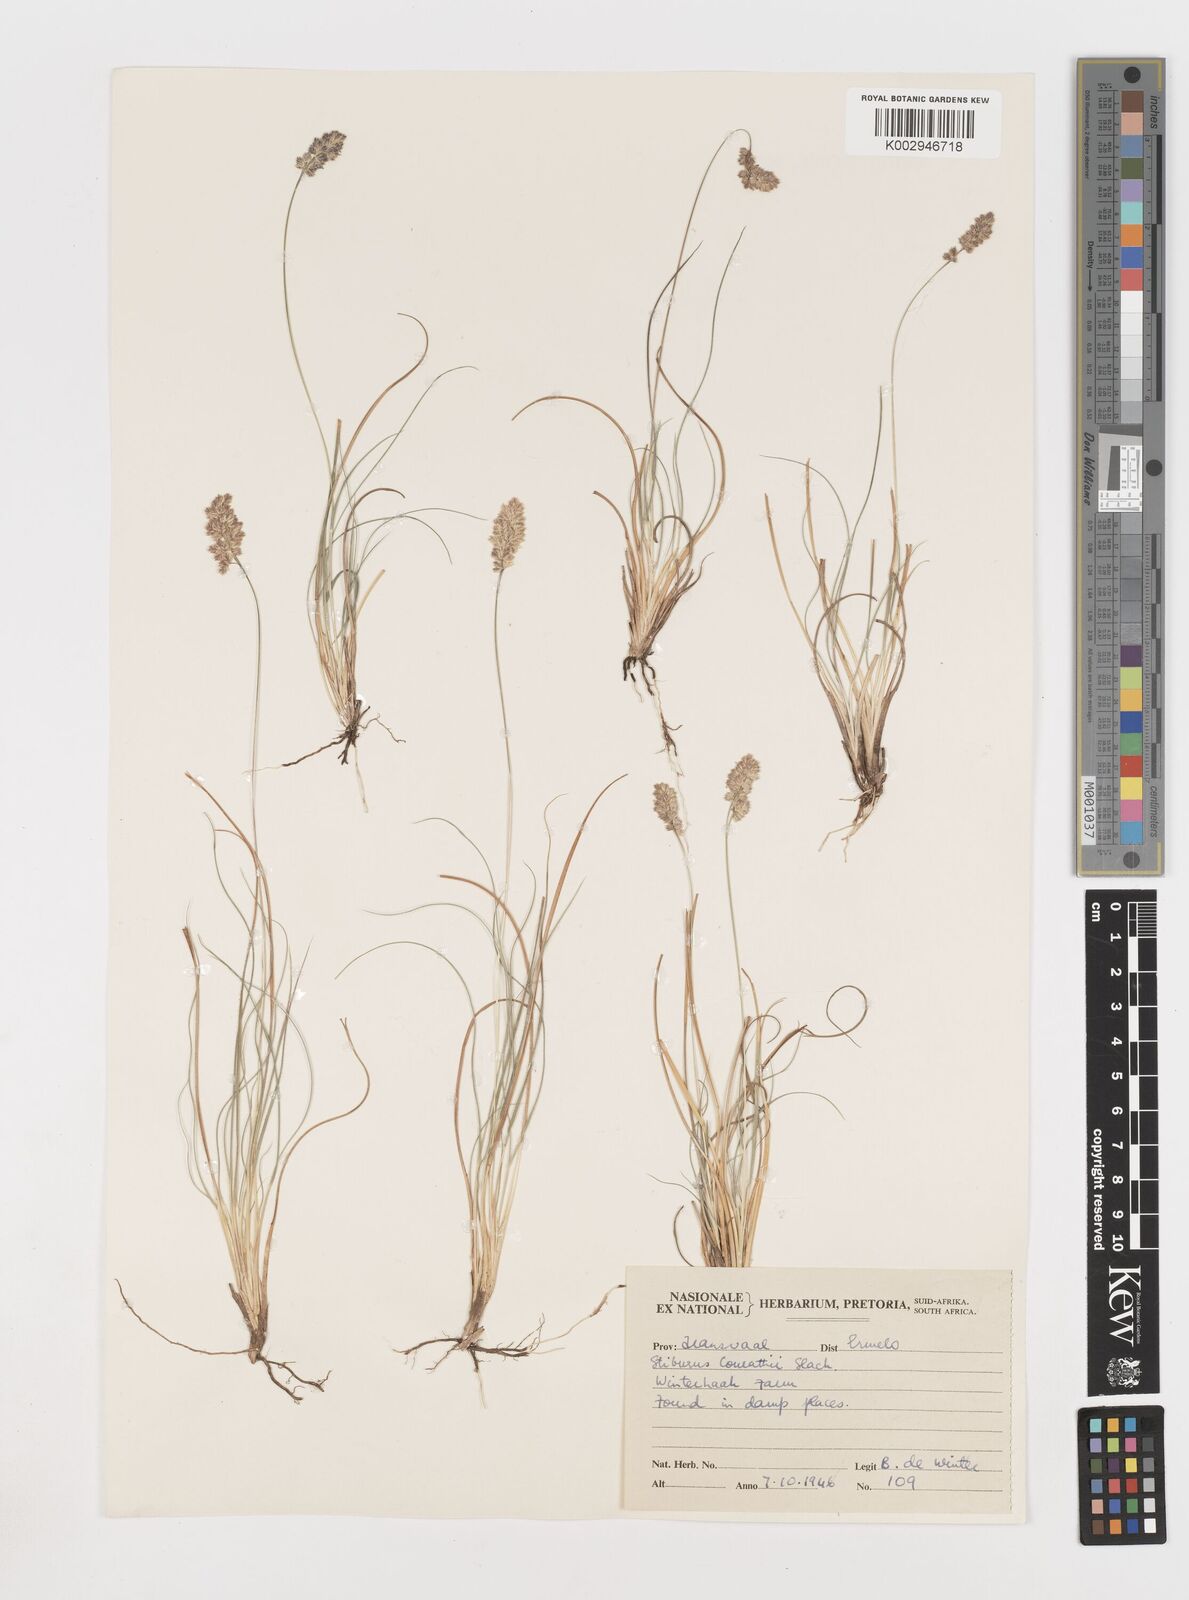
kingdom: Plantae
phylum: Tracheophyta
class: Liliopsida
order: Poales
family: Poaceae
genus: Stiburus
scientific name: Stiburus conrathii
